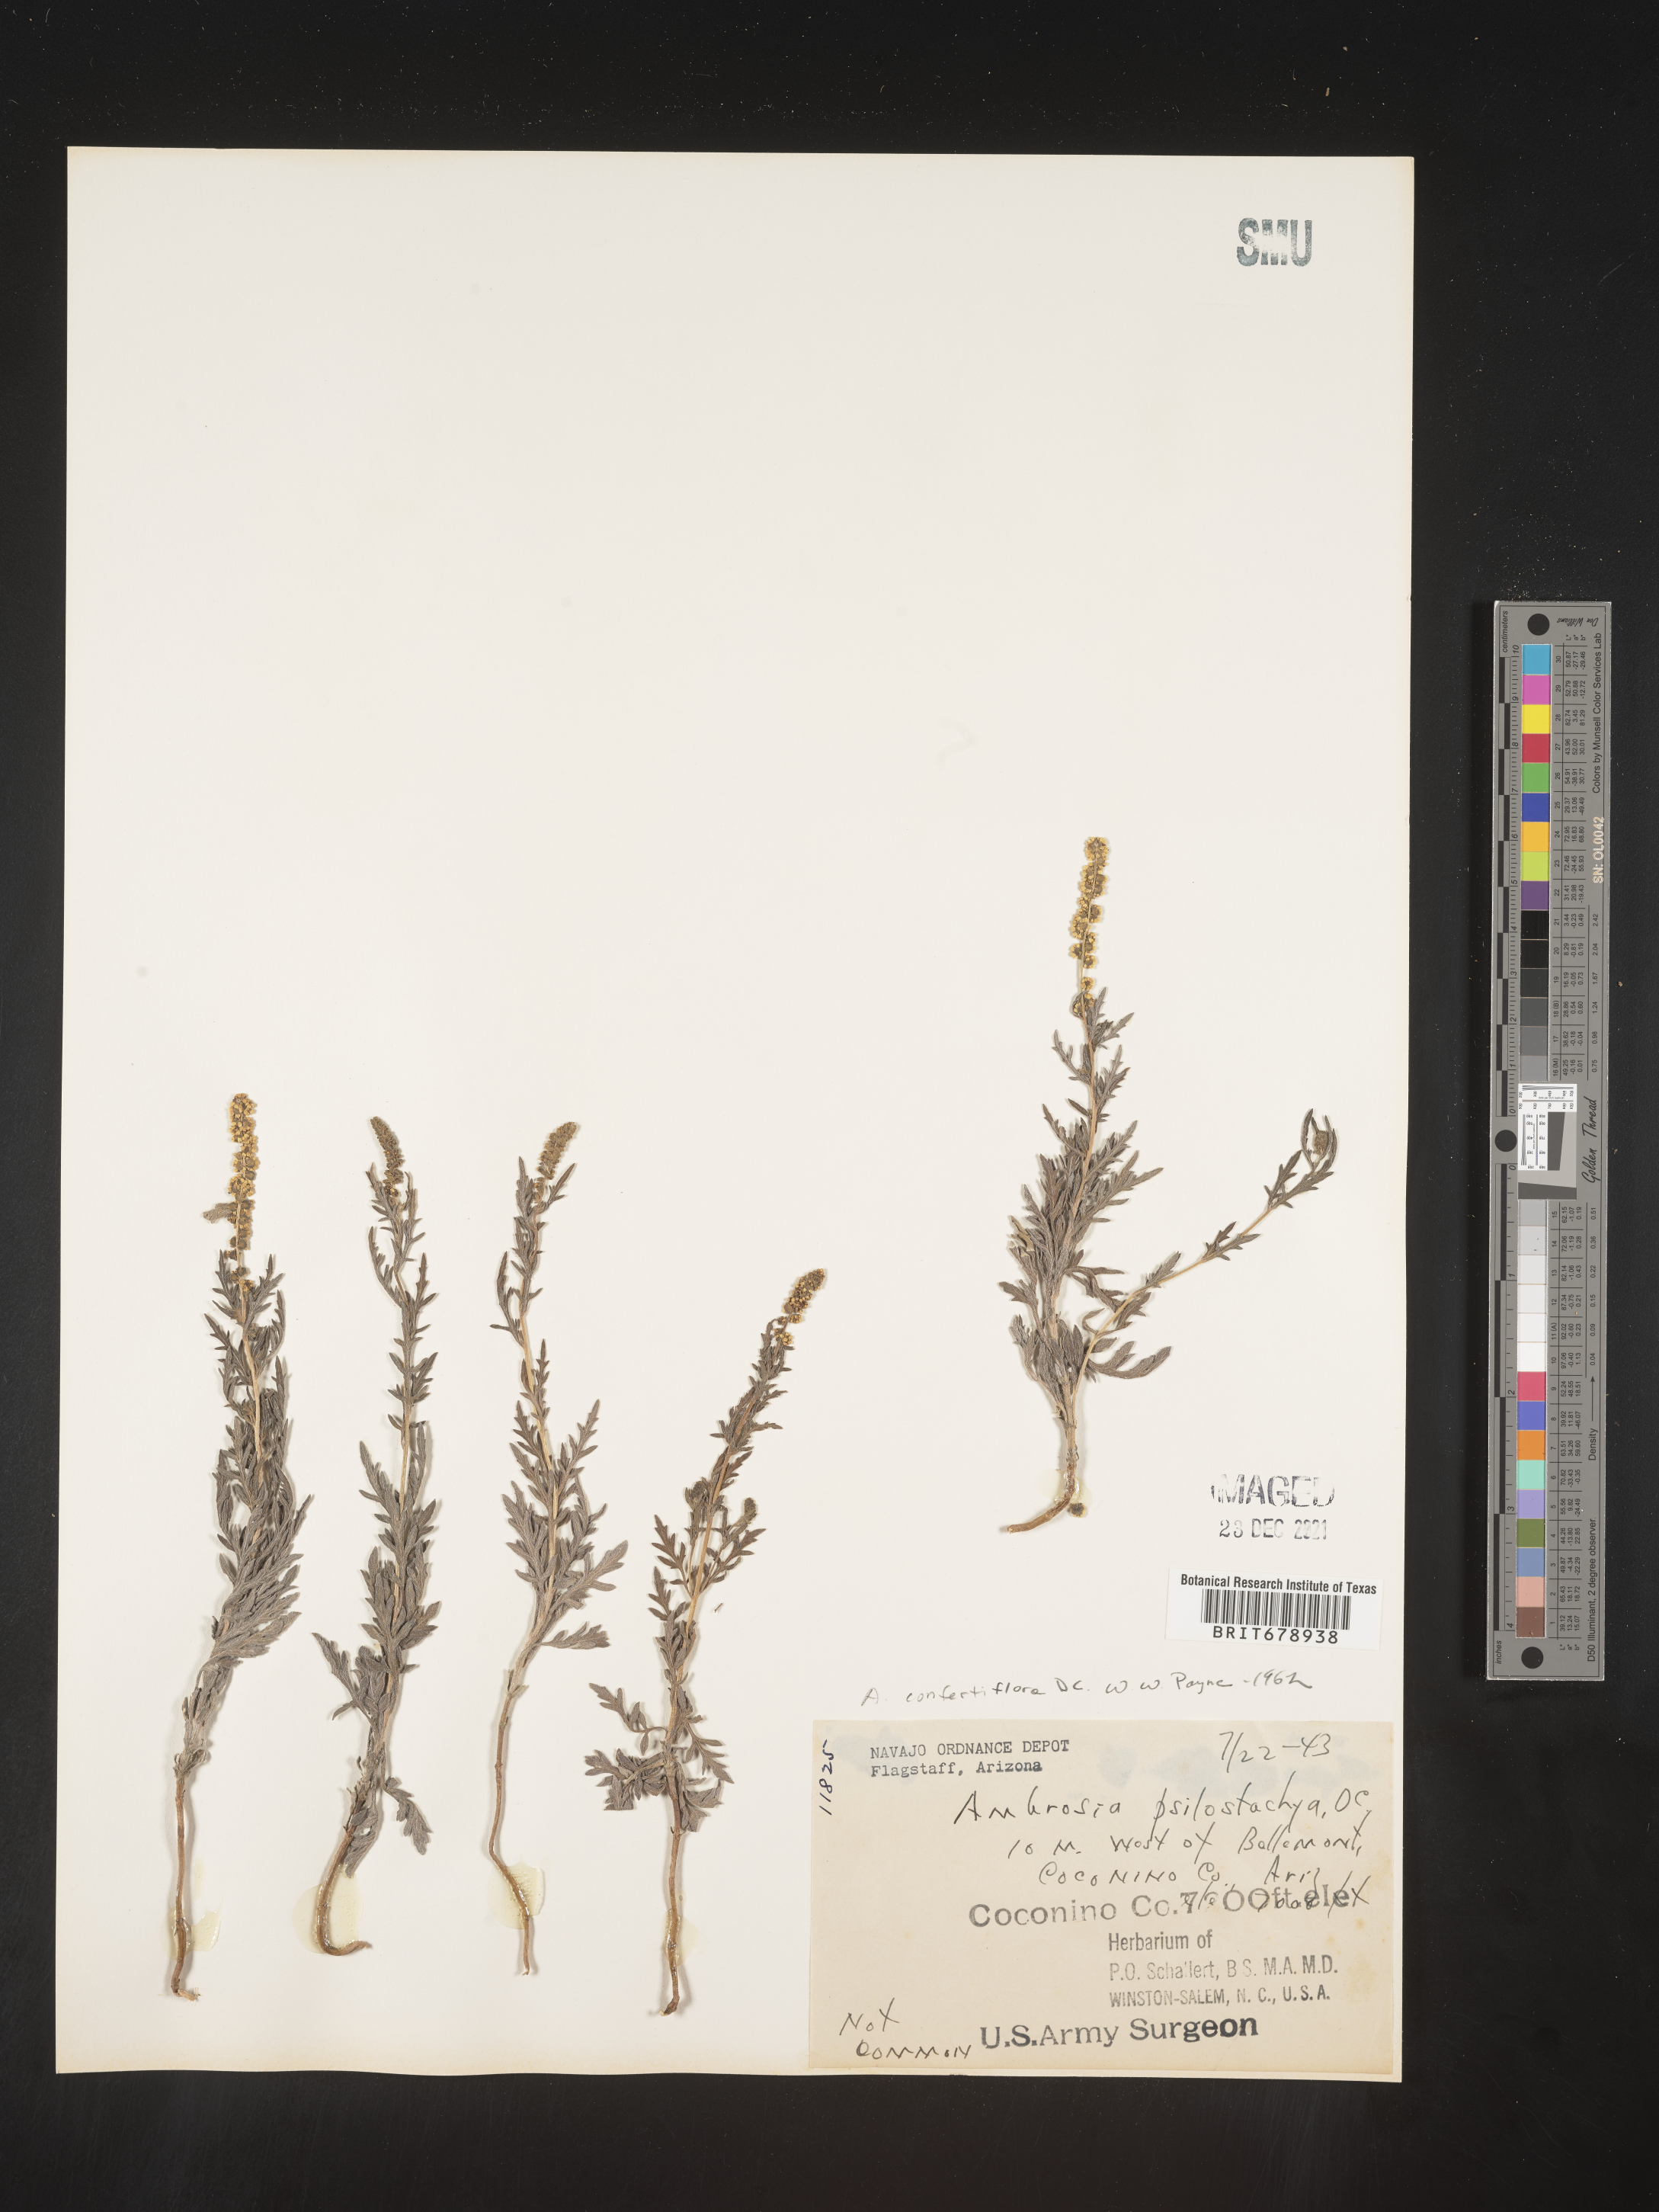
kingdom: Plantae
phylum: Tracheophyta
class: Magnoliopsida
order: Asterales
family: Asteraceae
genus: Ambrosia
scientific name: Ambrosia confertiflora
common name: Bur ragweed
